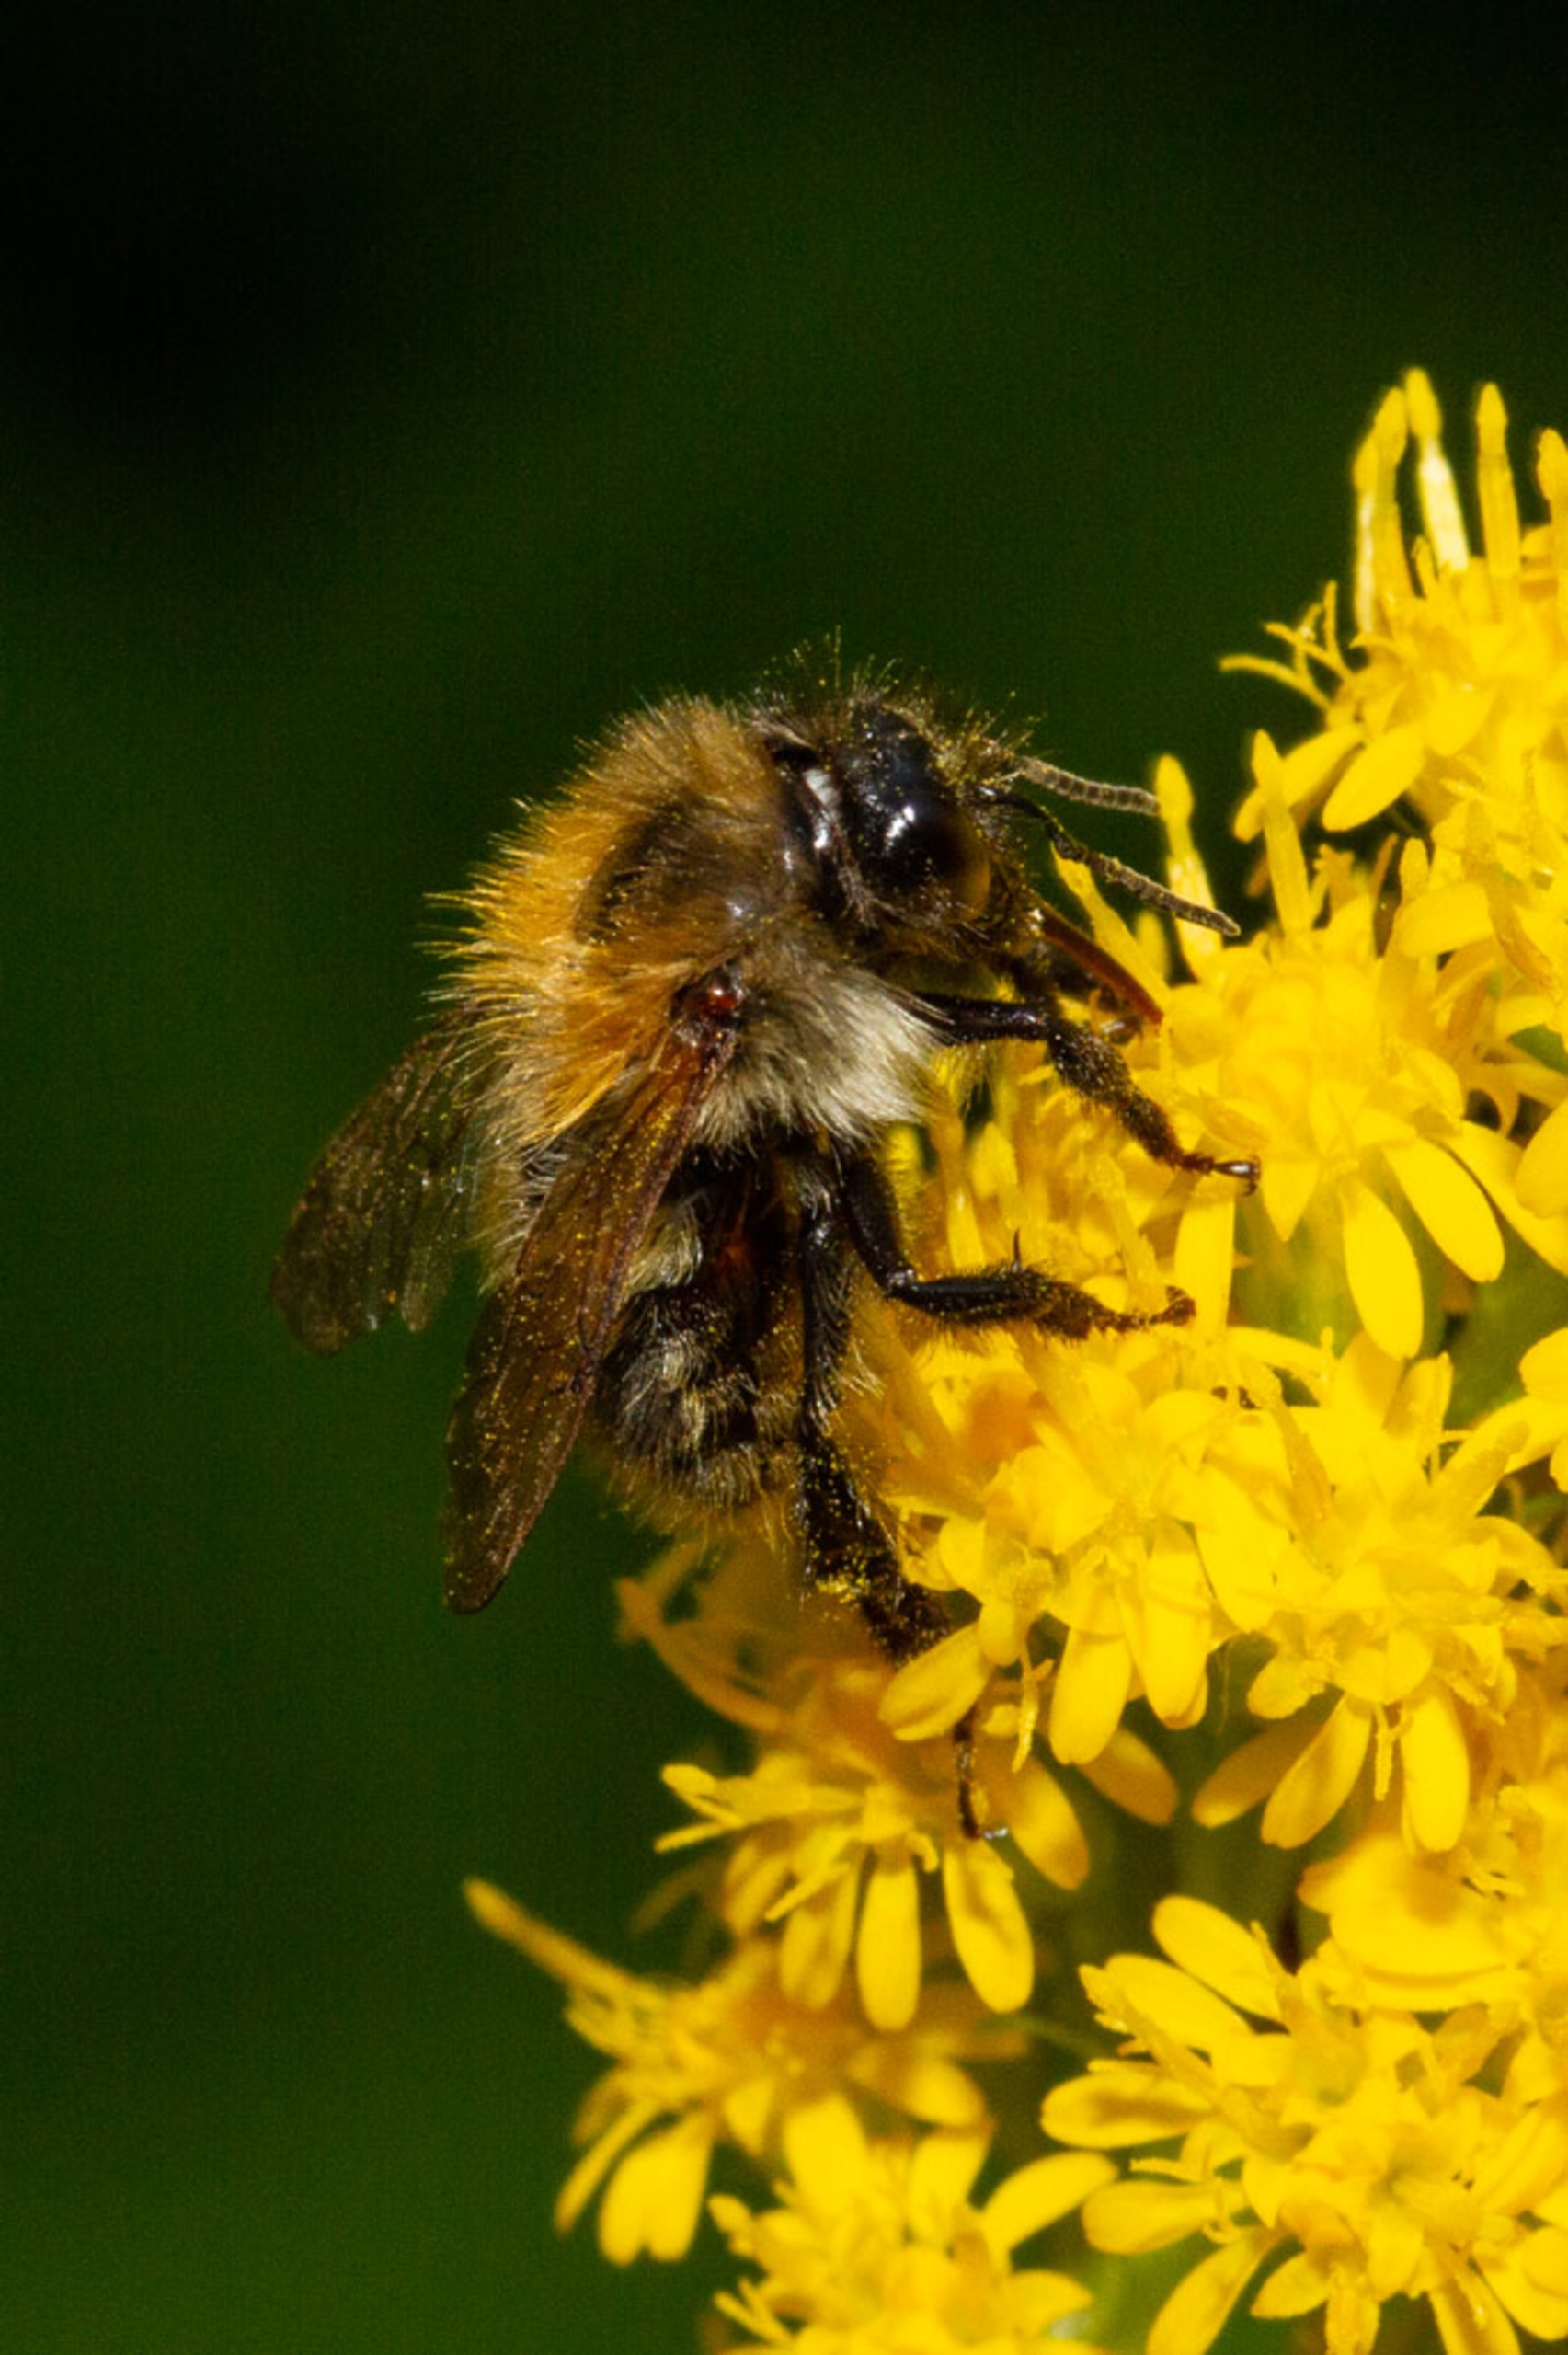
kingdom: Animalia
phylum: Arthropoda
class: Insecta
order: Hymenoptera
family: Apidae
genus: Bombus
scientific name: Bombus
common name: Humlebier
